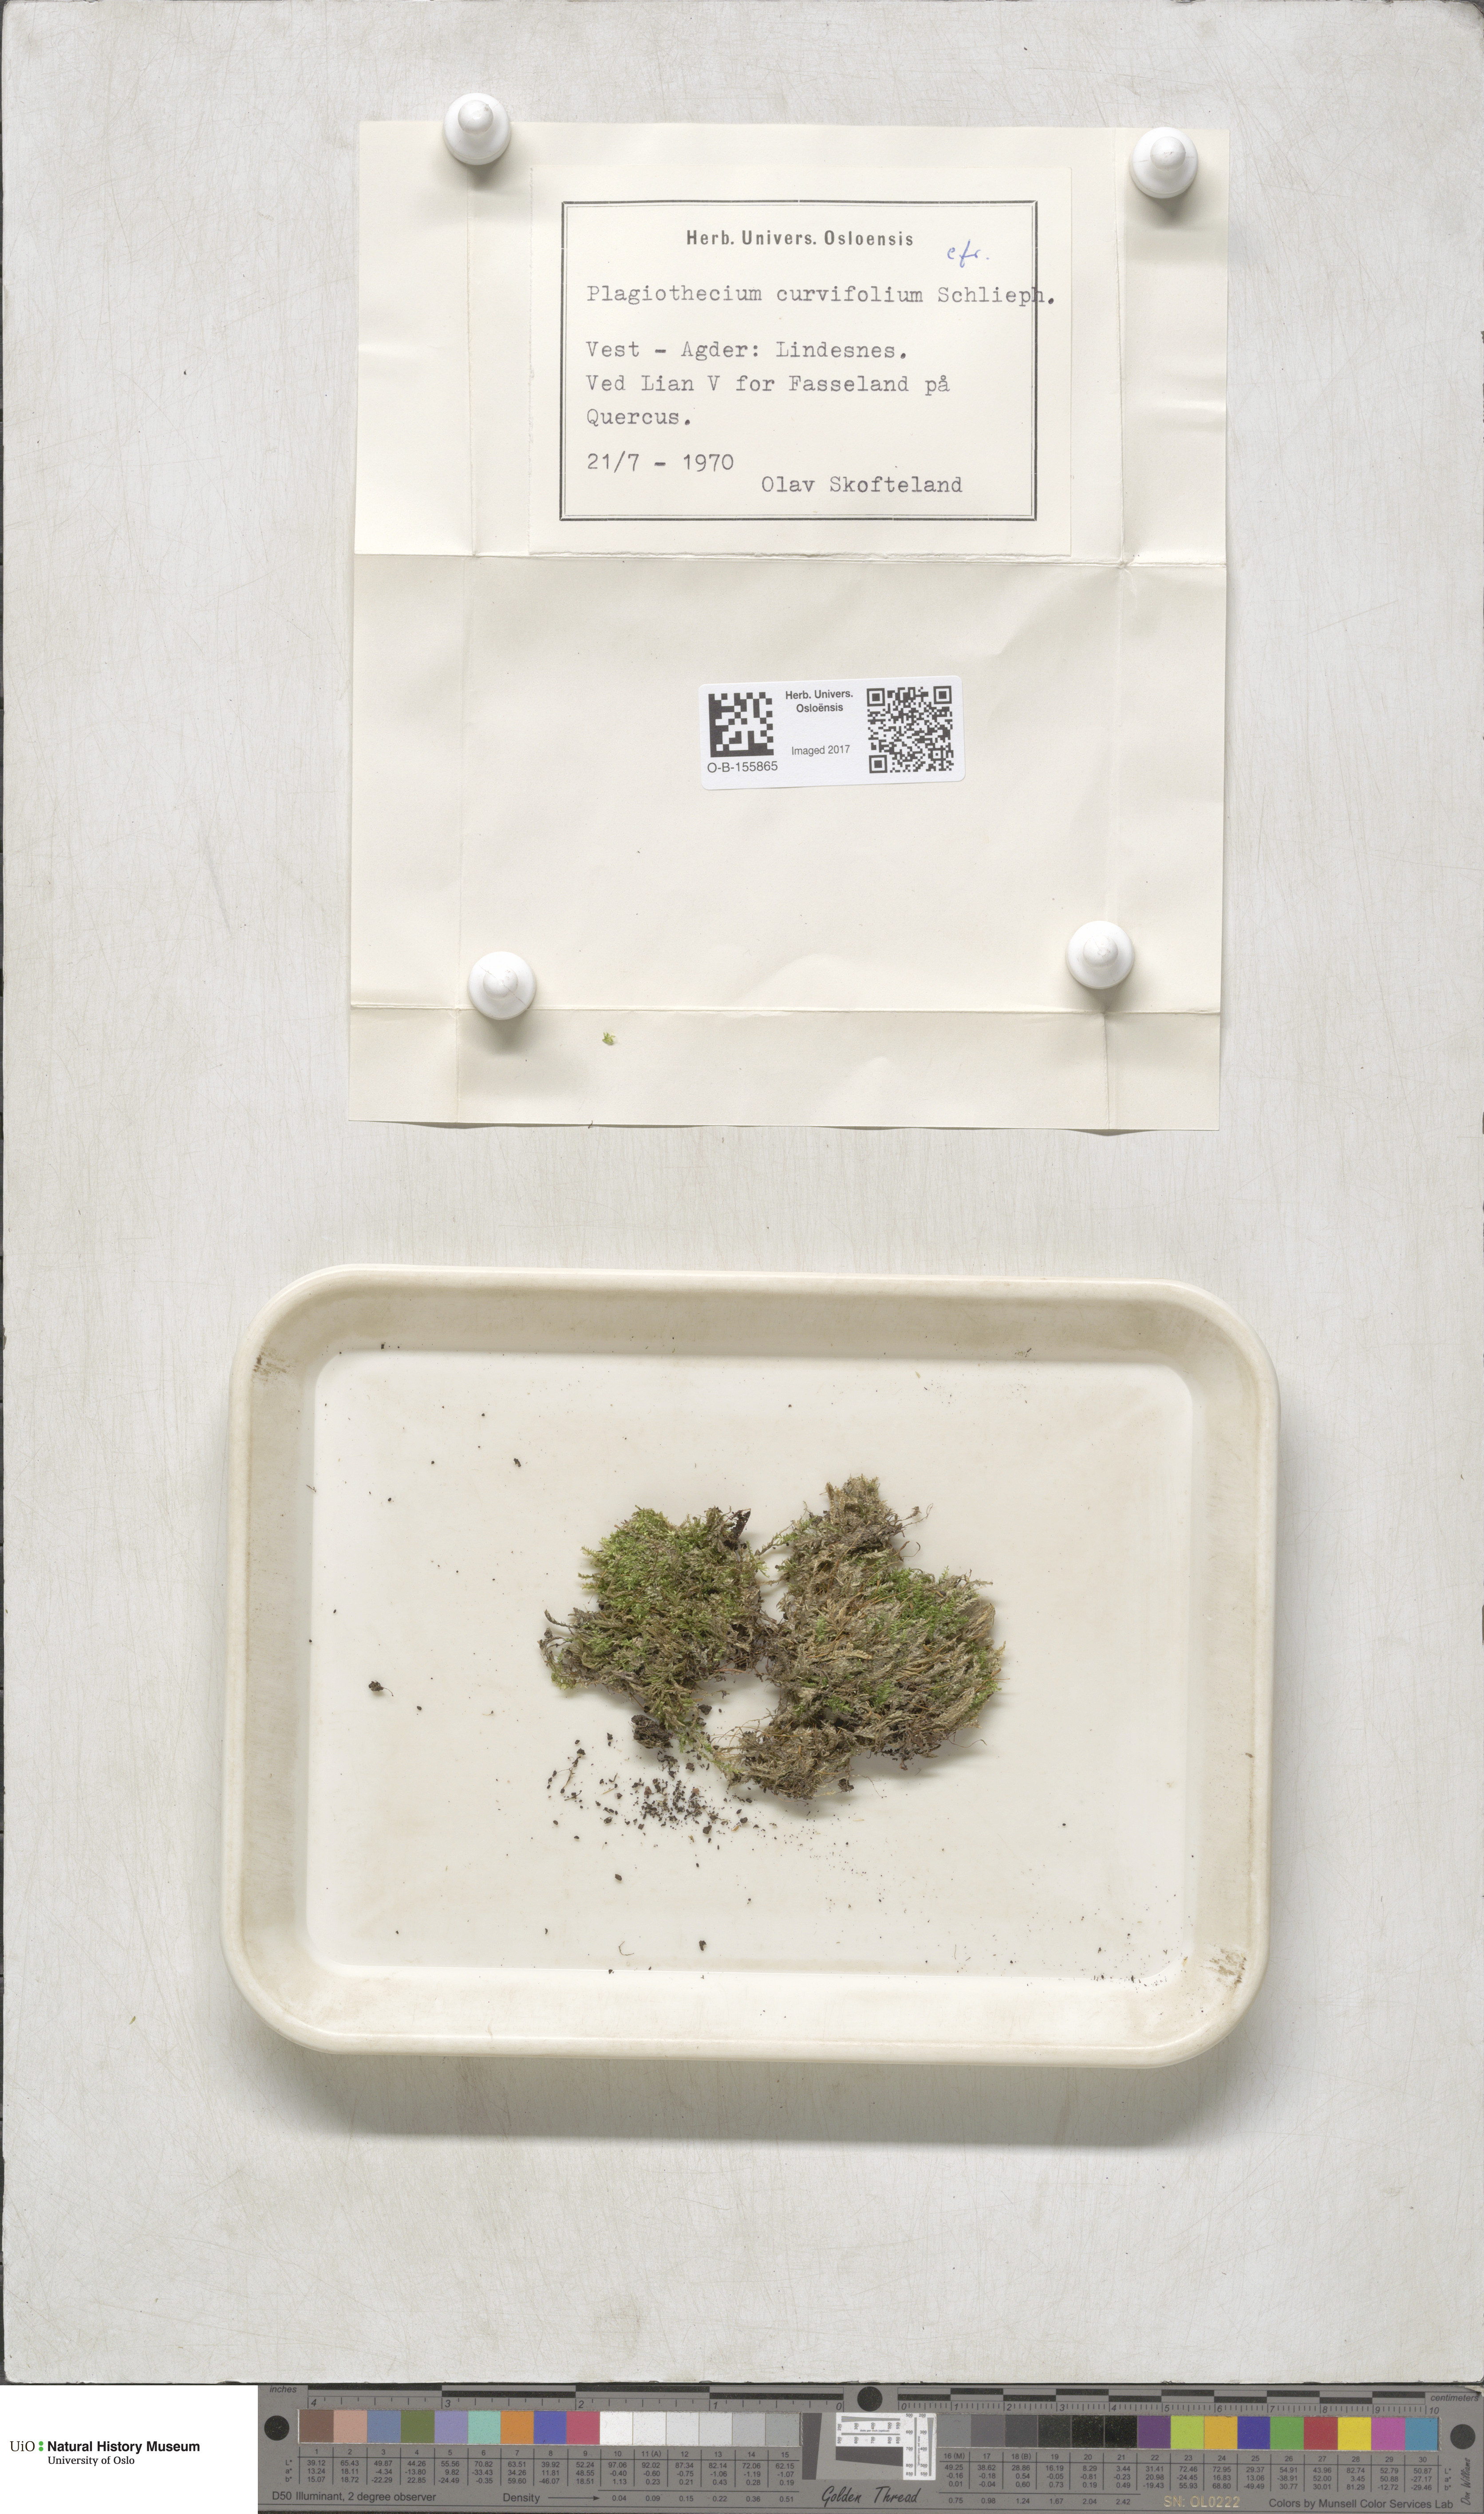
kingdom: Plantae
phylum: Bryophyta
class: Bryopsida
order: Hypnales
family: Plagiotheciaceae
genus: Plagiothecium
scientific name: Plagiothecium curvifolium
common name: Curved silk-moss
